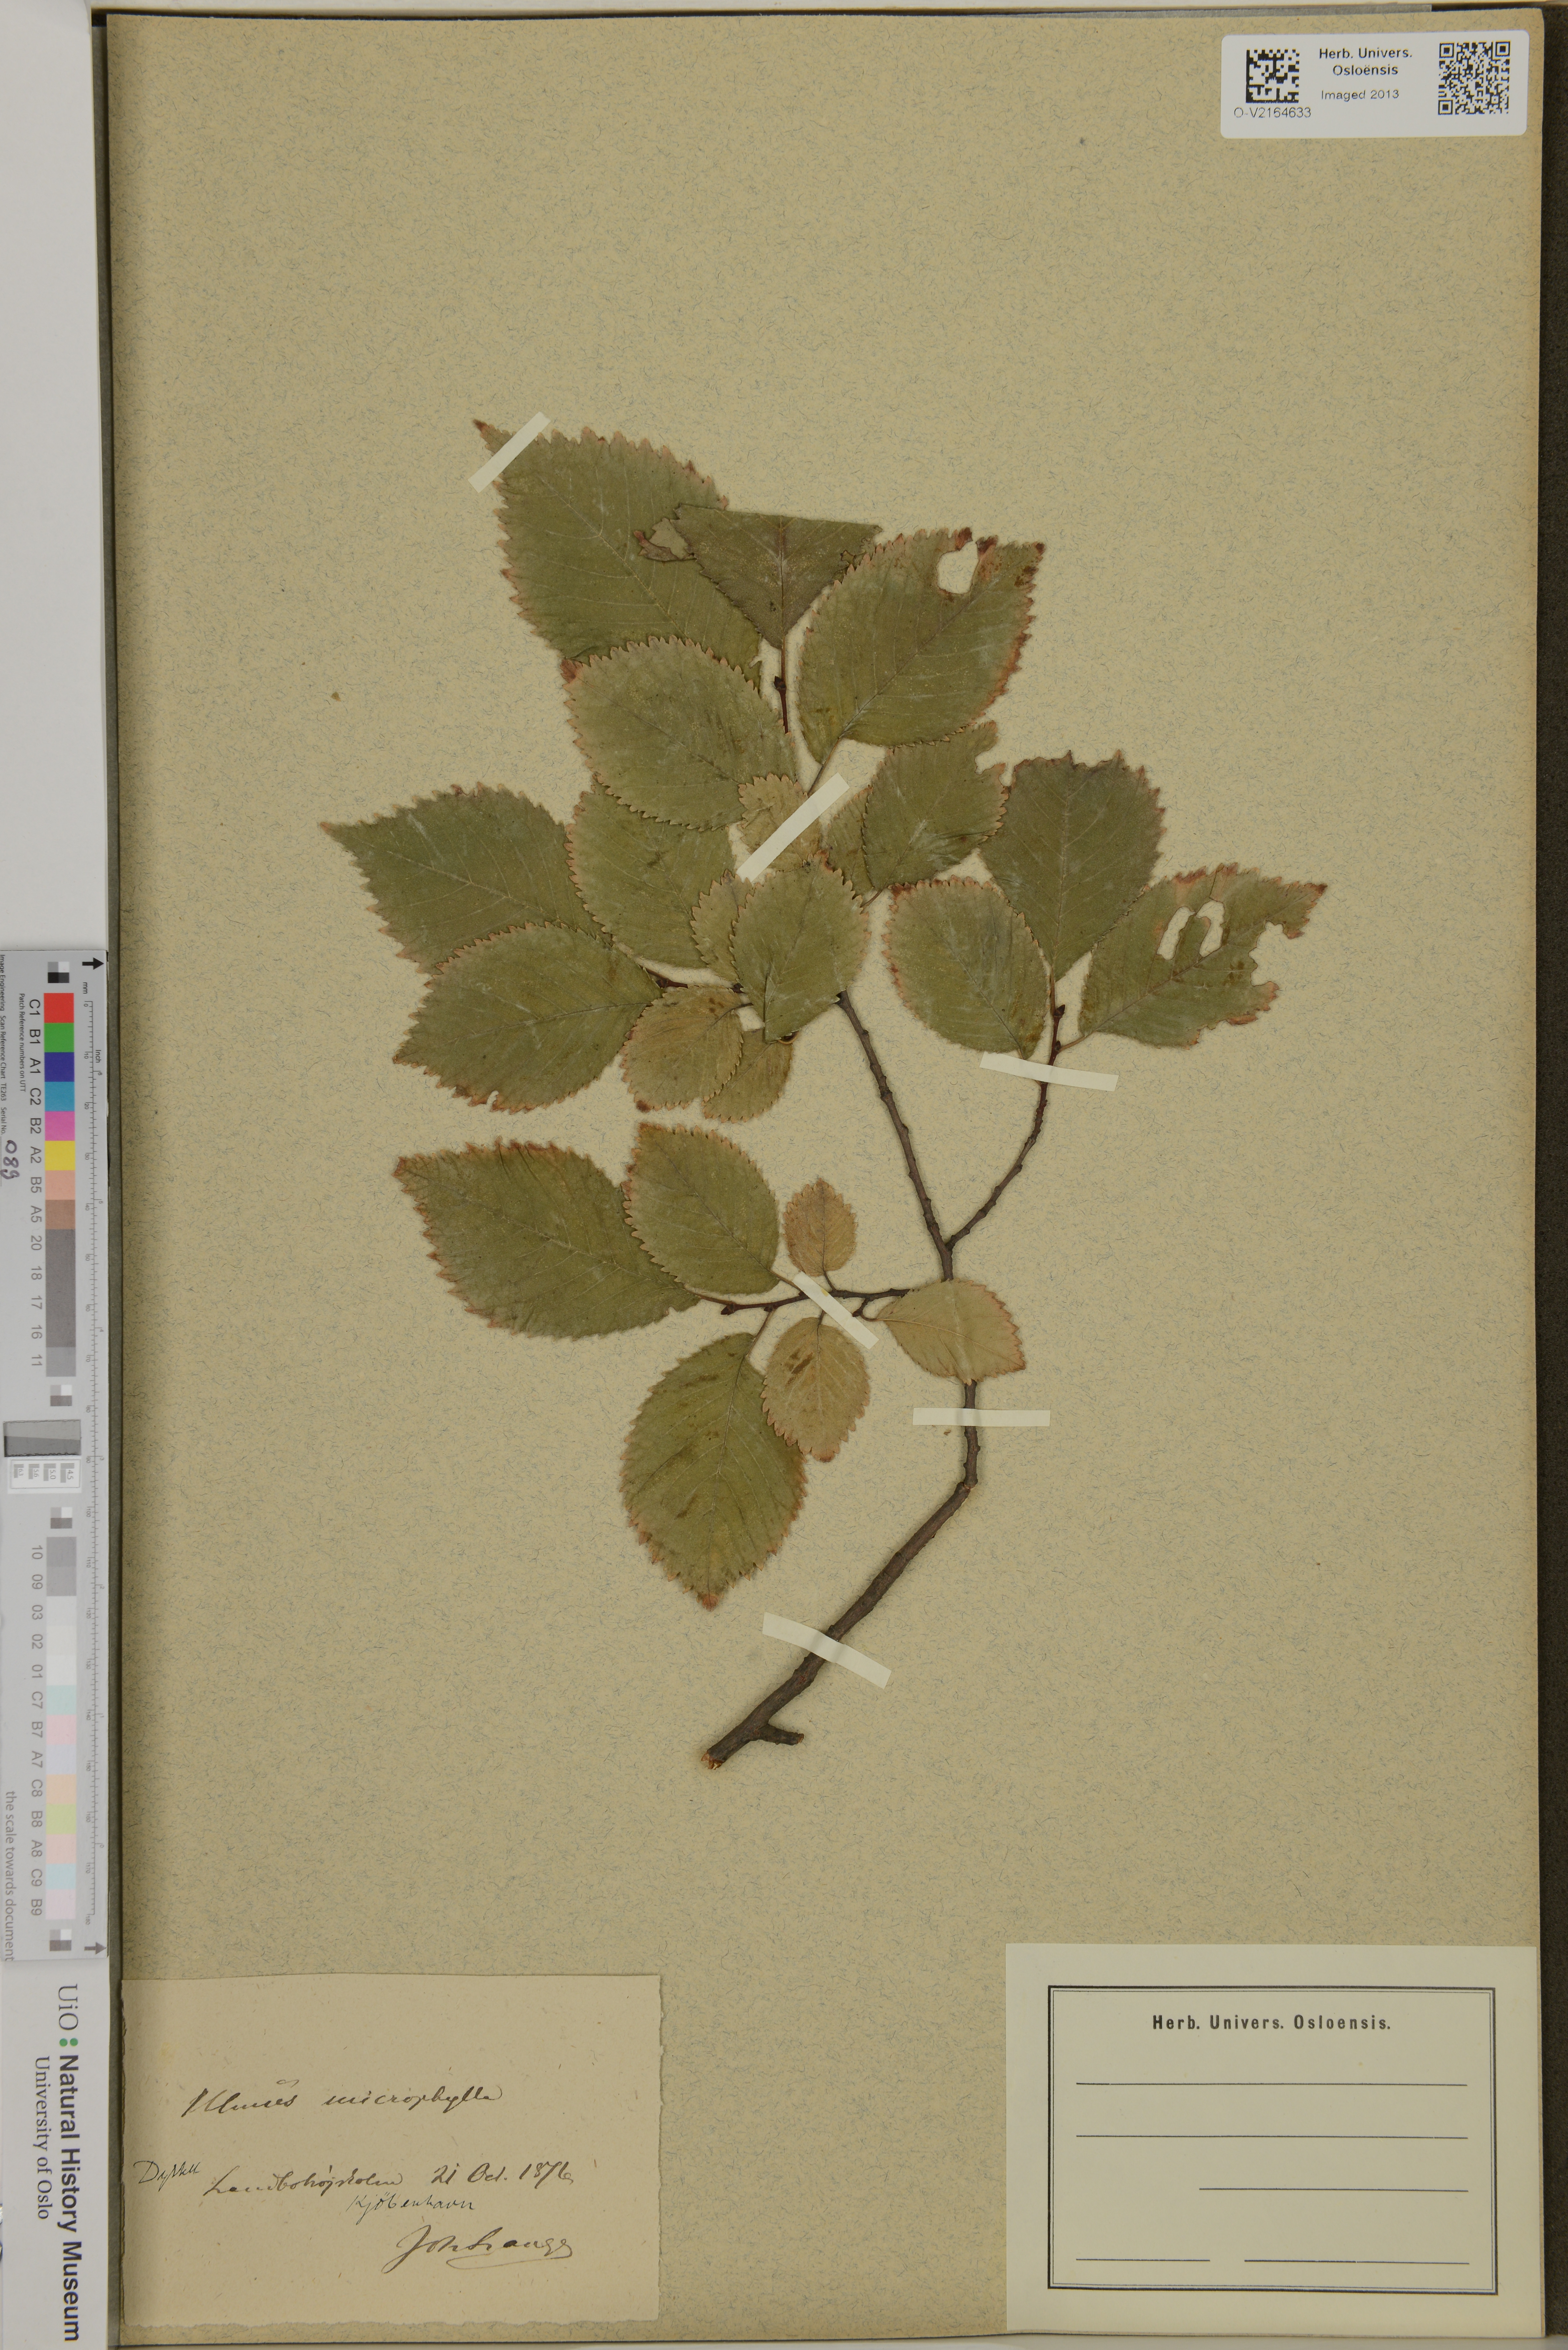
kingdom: Plantae
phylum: Tracheophyta
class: Magnoliopsida
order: Rosales
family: Ulmaceae
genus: Ulmus
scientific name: Ulmus macrocarpa
